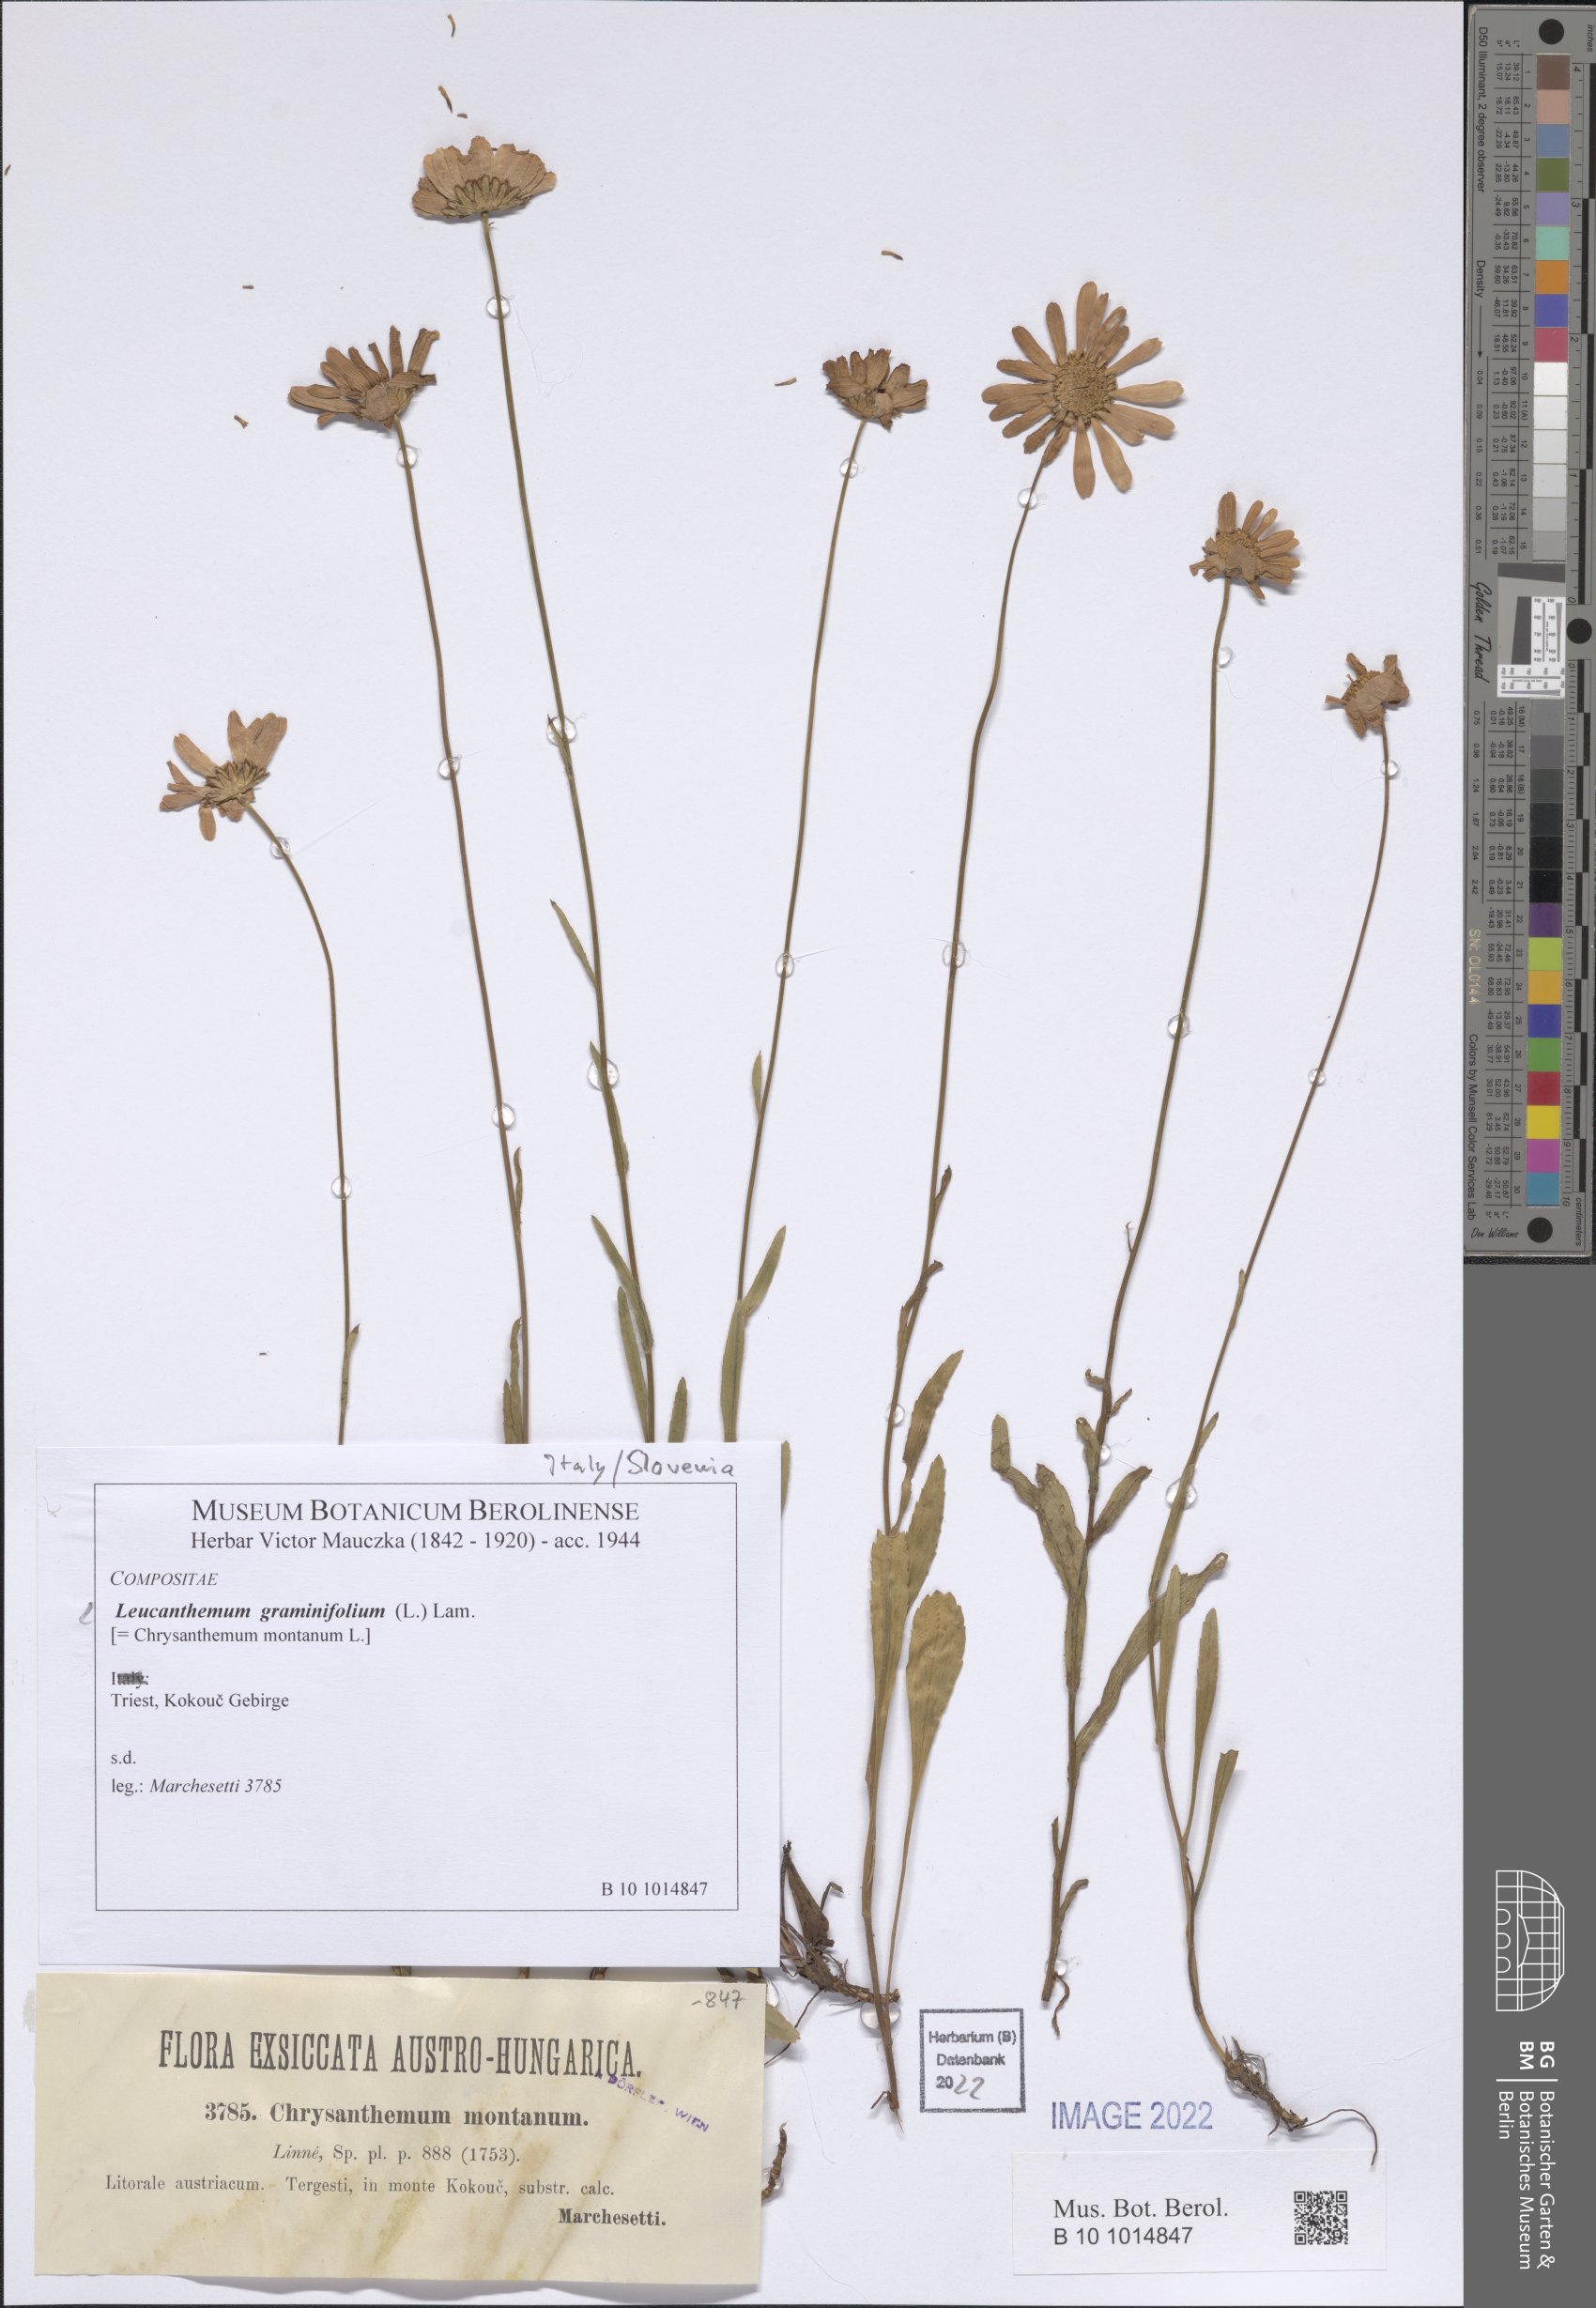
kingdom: Plantae
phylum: Tracheophyta
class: Magnoliopsida
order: Asterales
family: Asteraceae
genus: Leucanthemum
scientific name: Leucanthemum platylepis
